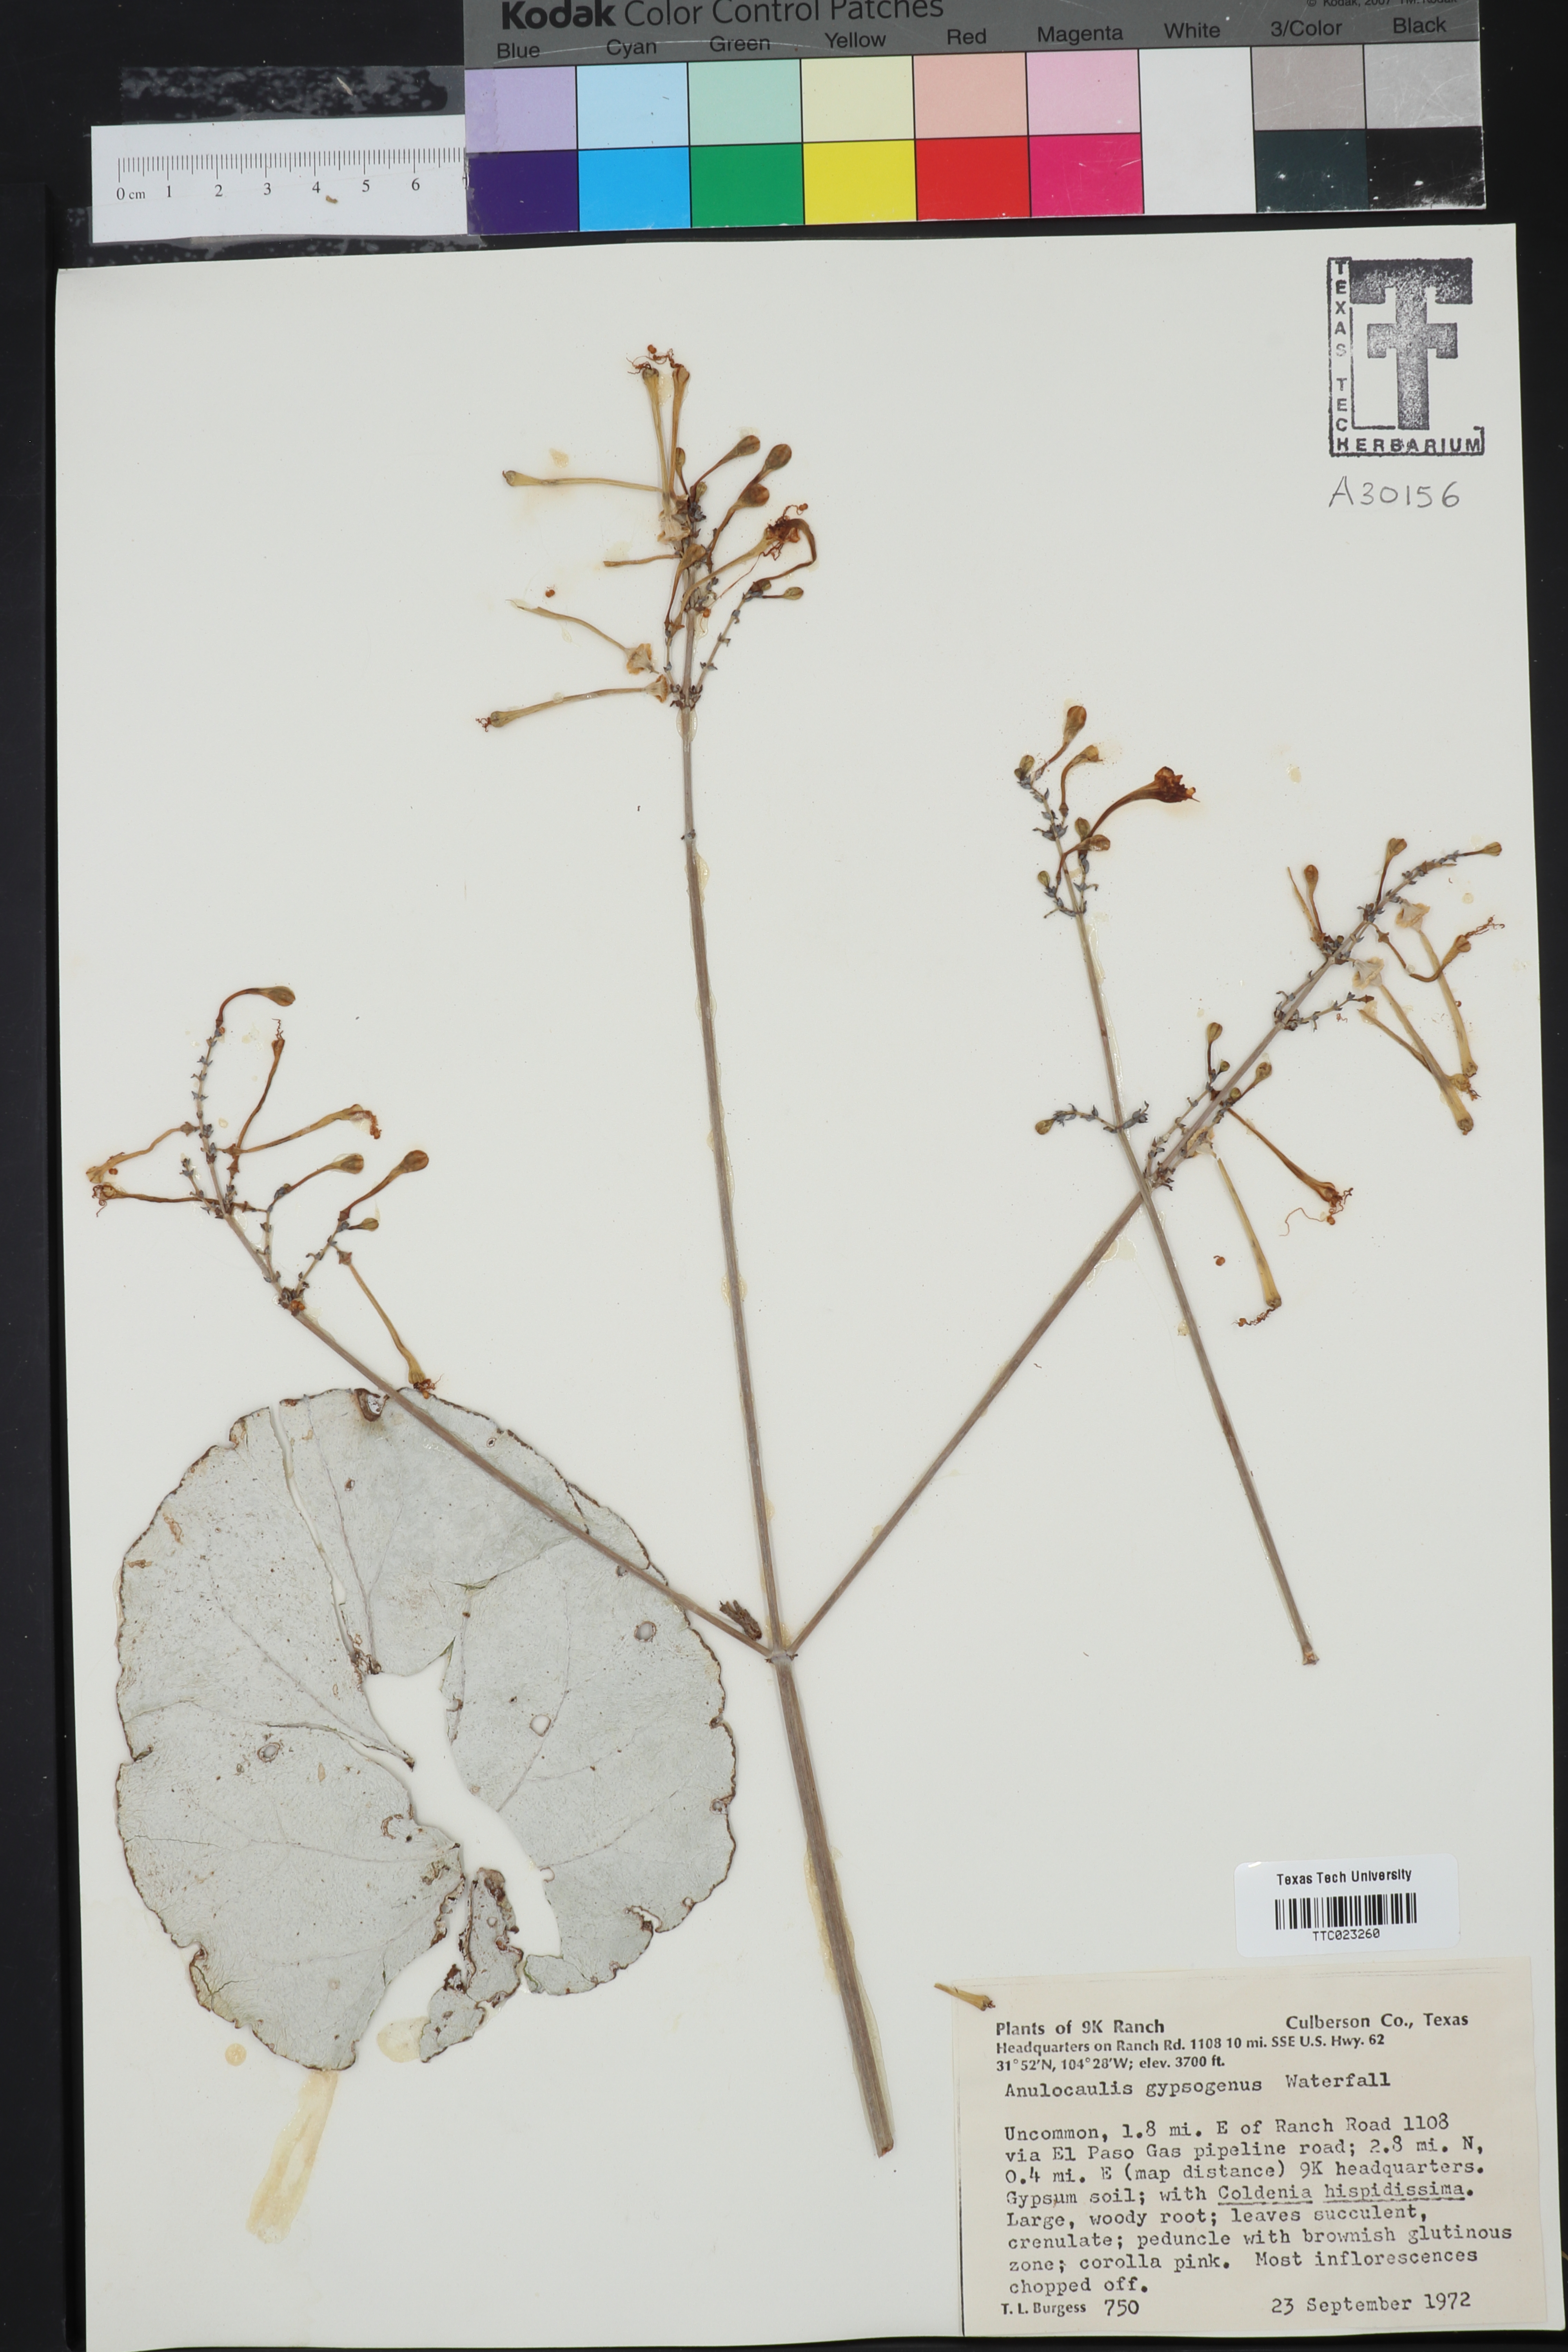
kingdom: Plantae
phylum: Tracheophyta
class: Magnoliopsida
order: Caryophyllales
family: Nyctaginaceae
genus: Anulocaulis
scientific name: Anulocaulis leiosolenus
